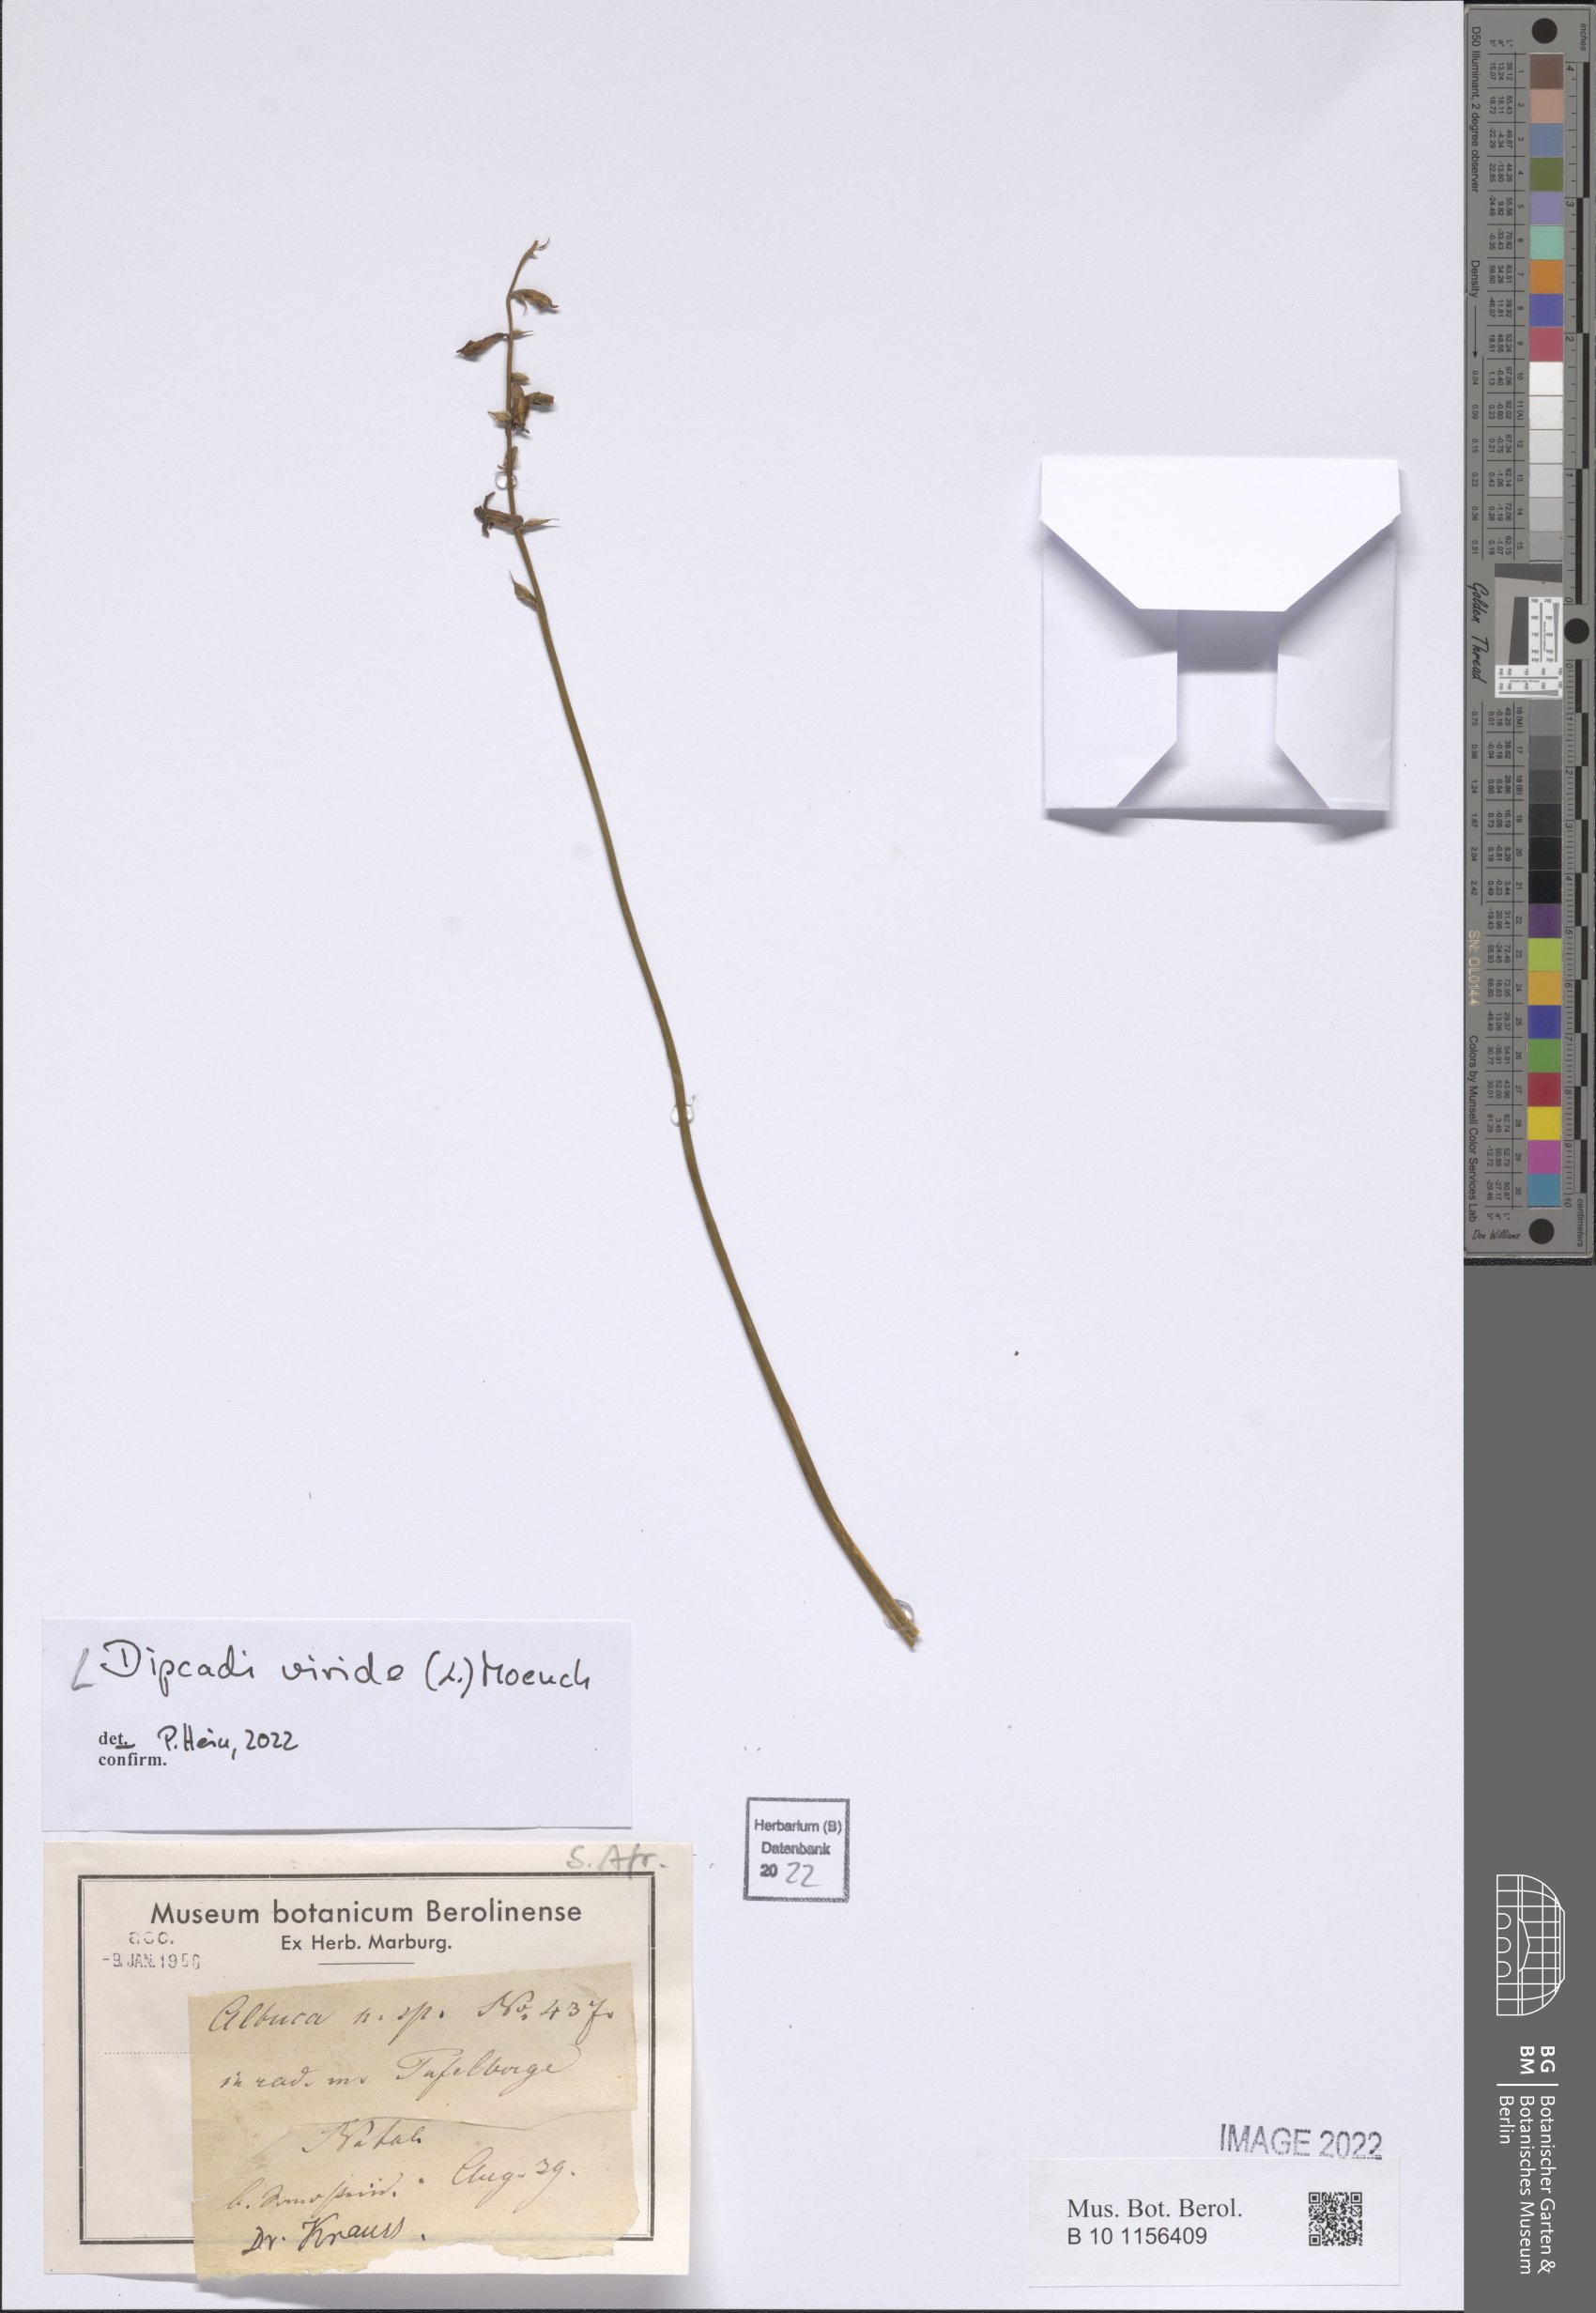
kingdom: Plantae
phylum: Tracheophyta
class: Liliopsida
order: Asparagales
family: Asparagaceae
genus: Dipcadi
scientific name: Dipcadi viride
